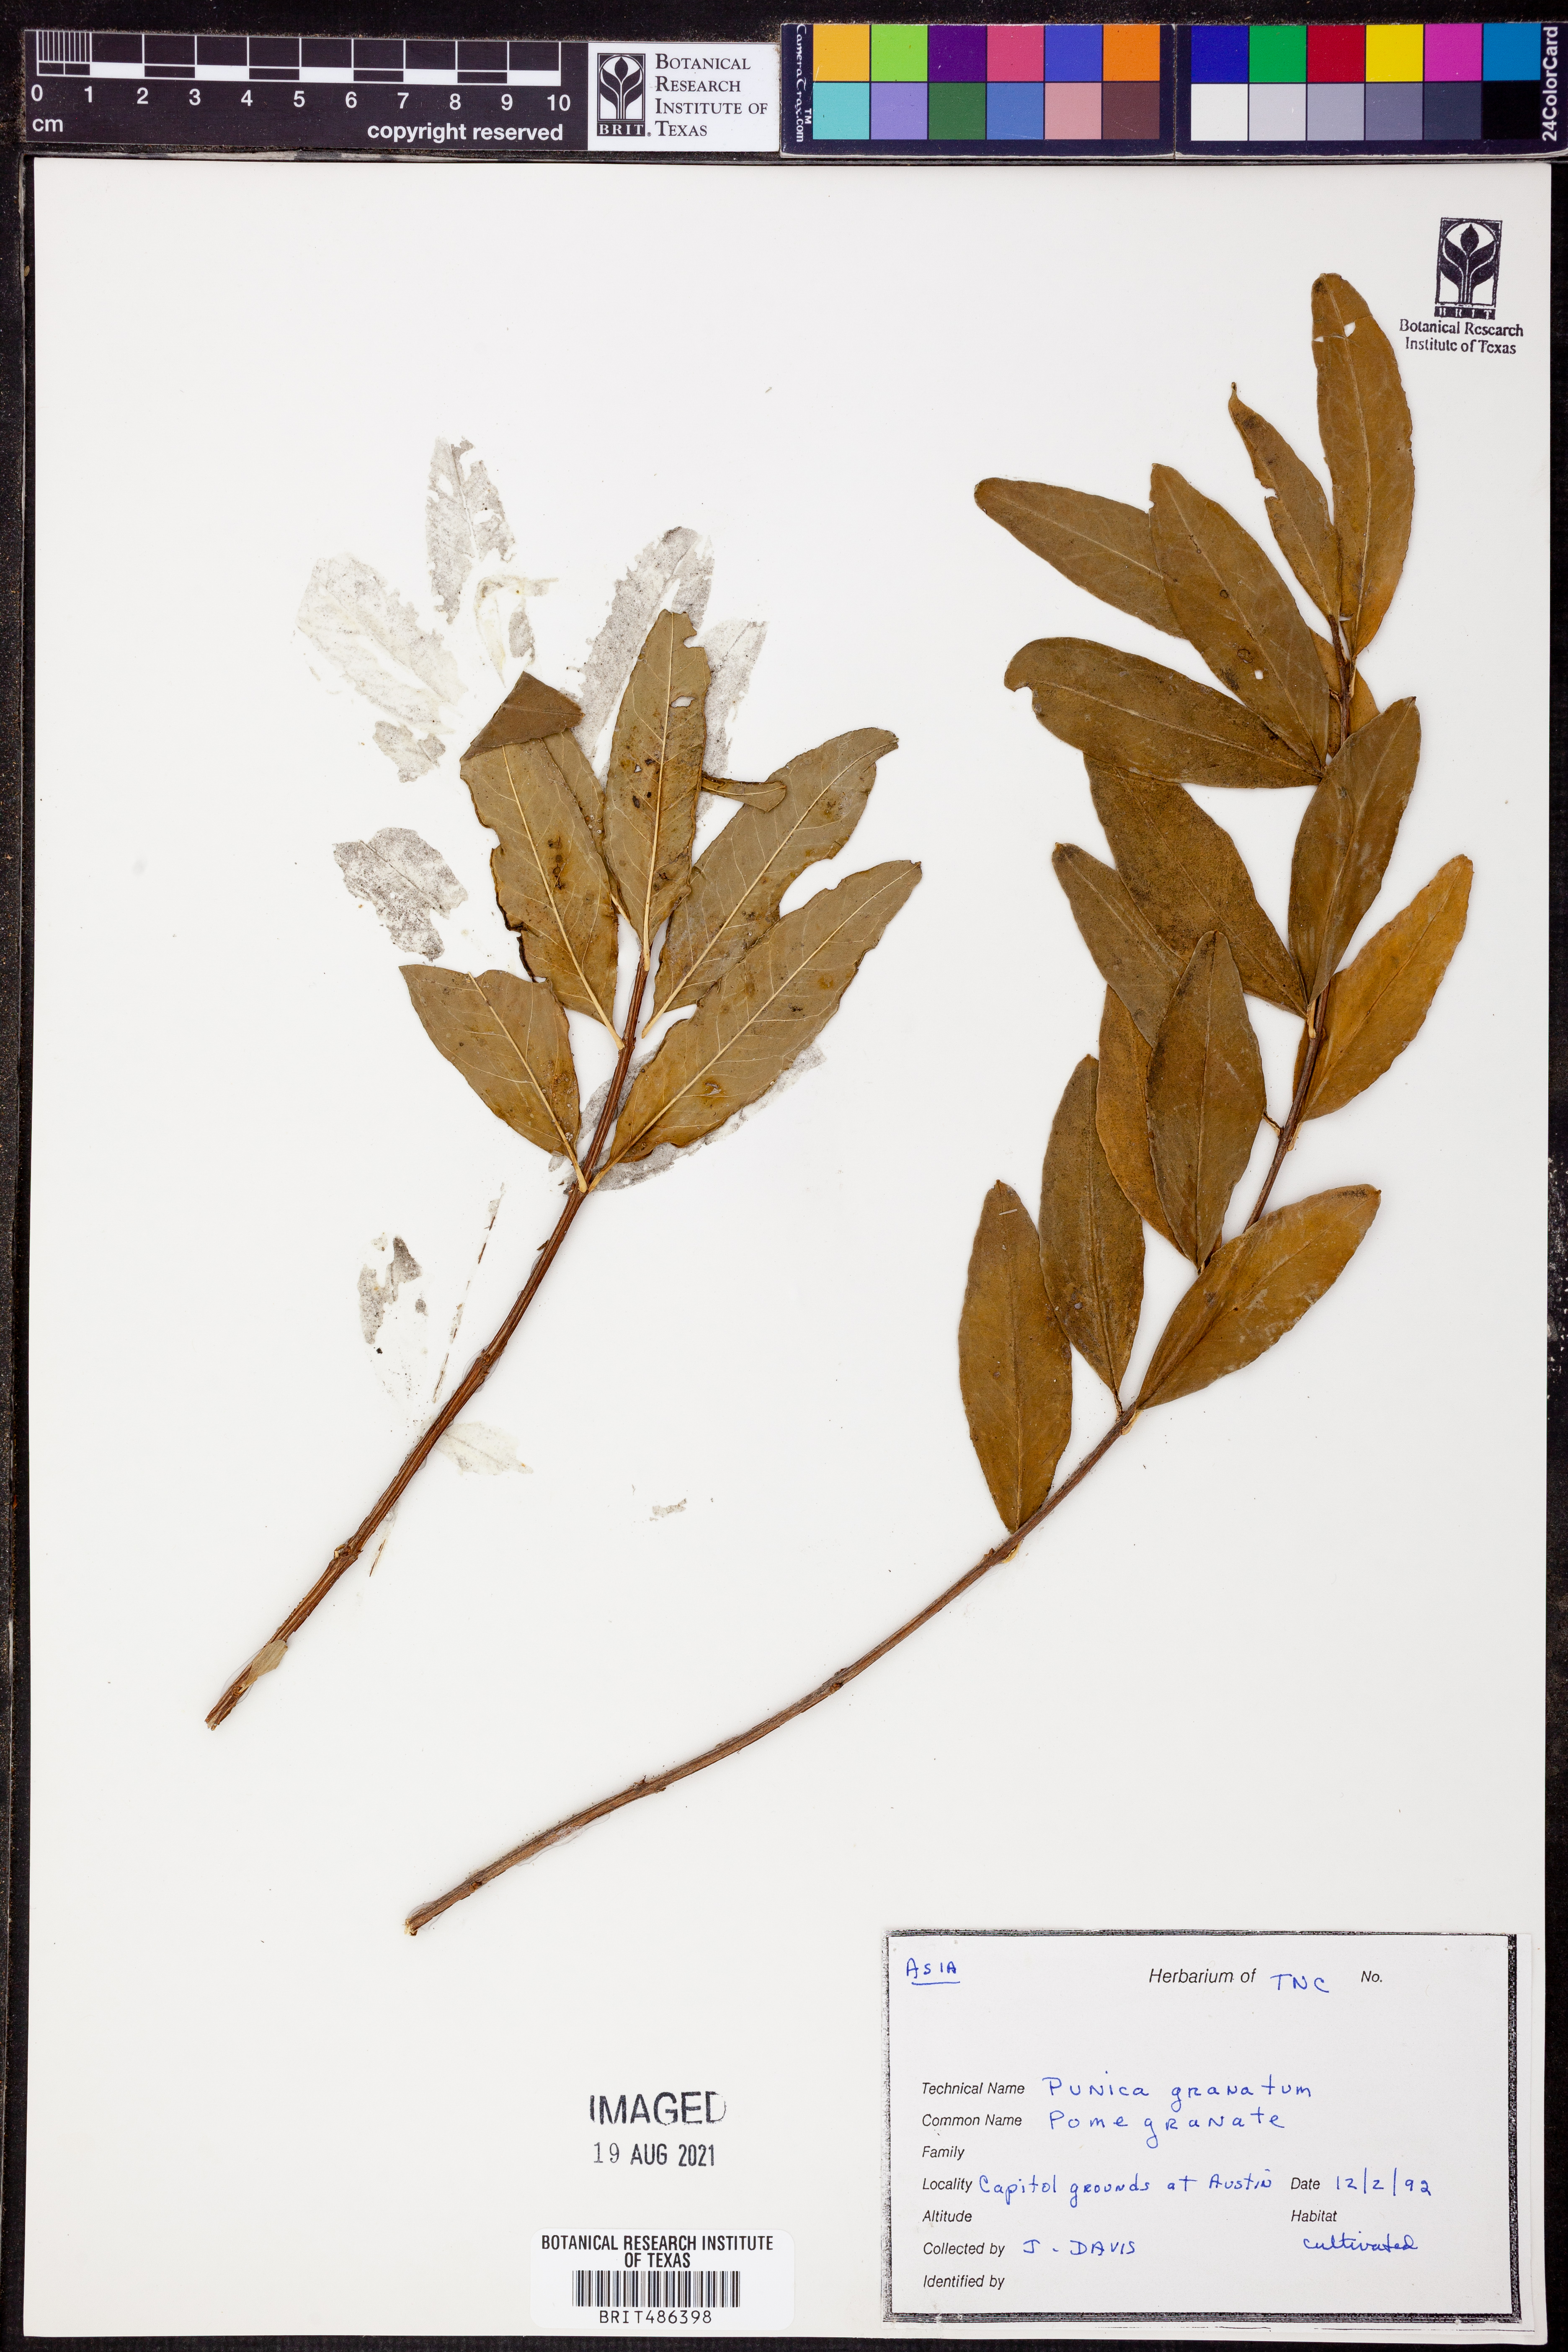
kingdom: Plantae
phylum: Tracheophyta
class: Magnoliopsida
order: Myrtales
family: Lythraceae
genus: Punica
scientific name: Punica granatum
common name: Pomegranate
